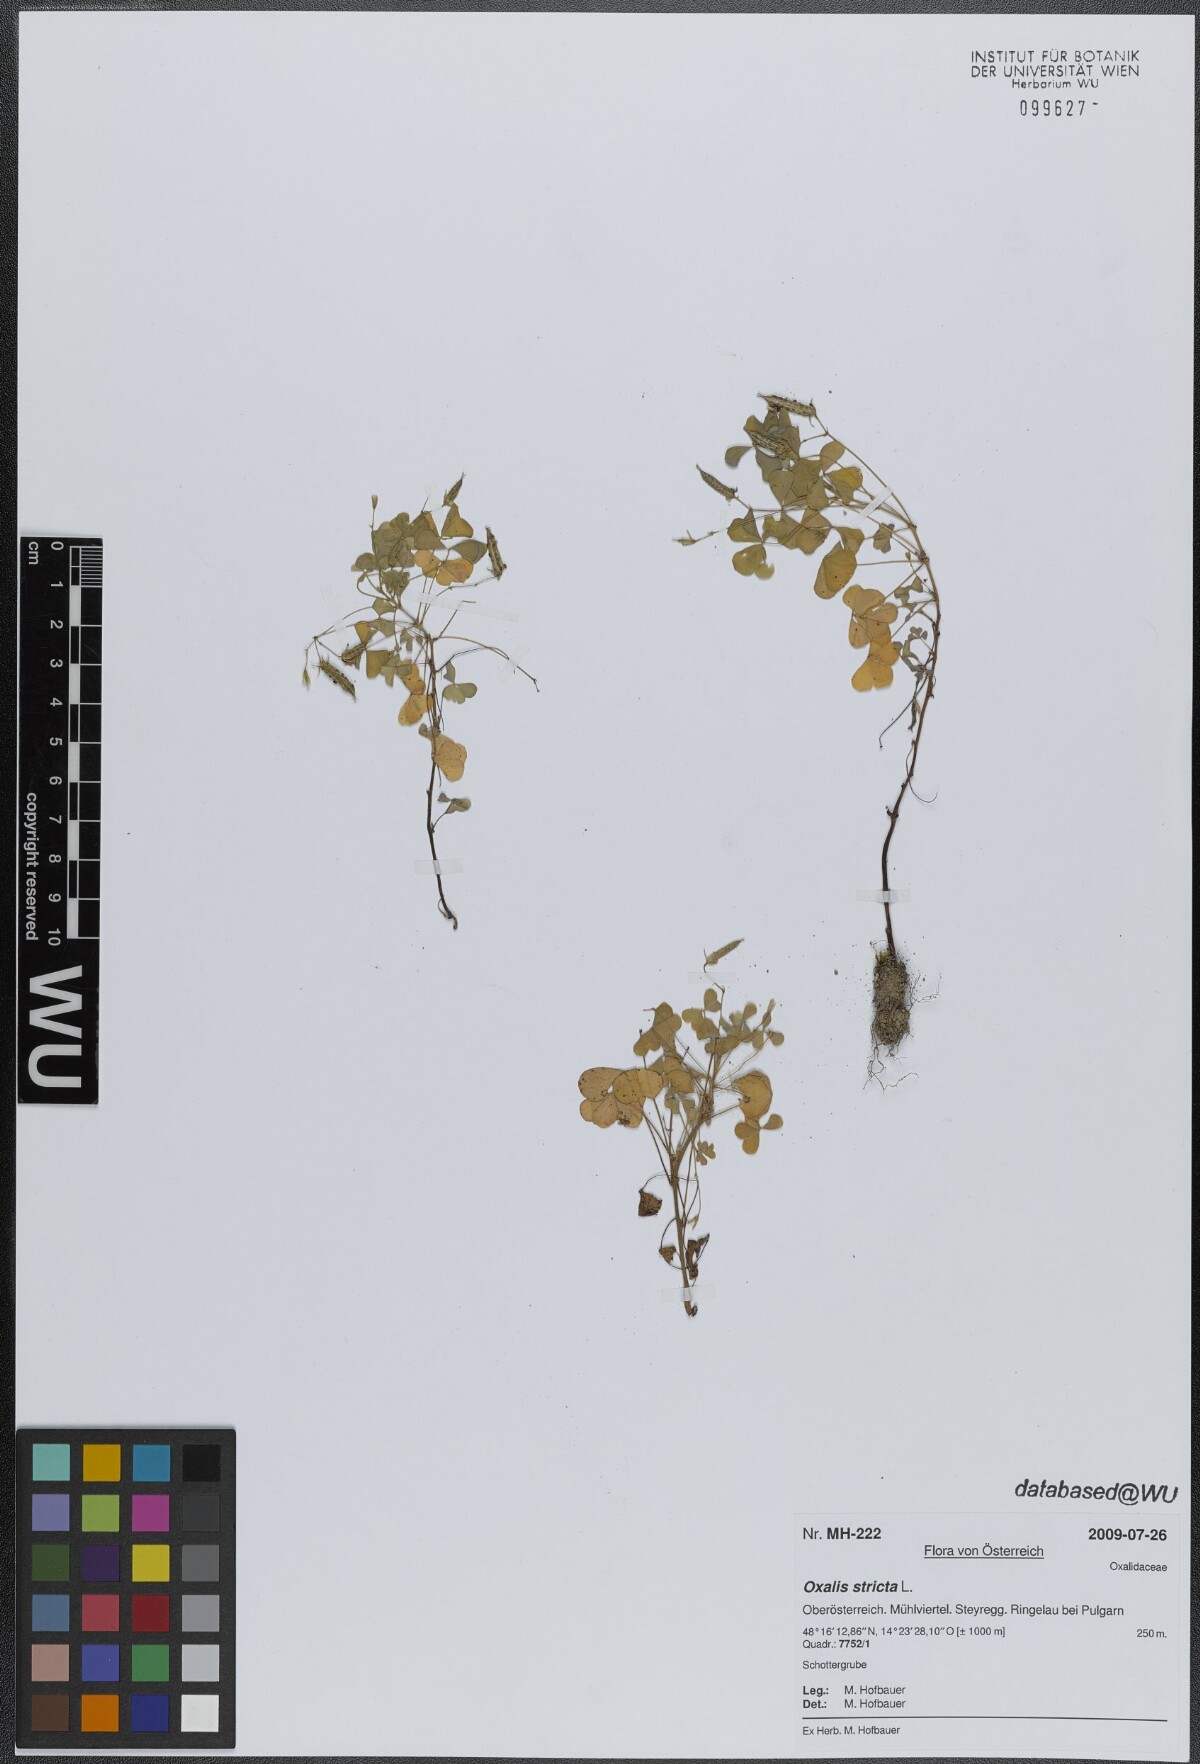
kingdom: Plantae
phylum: Tracheophyta
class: Magnoliopsida
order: Oxalidales
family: Oxalidaceae
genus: Oxalis
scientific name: Oxalis stricta
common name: Upright yellow-sorrel
